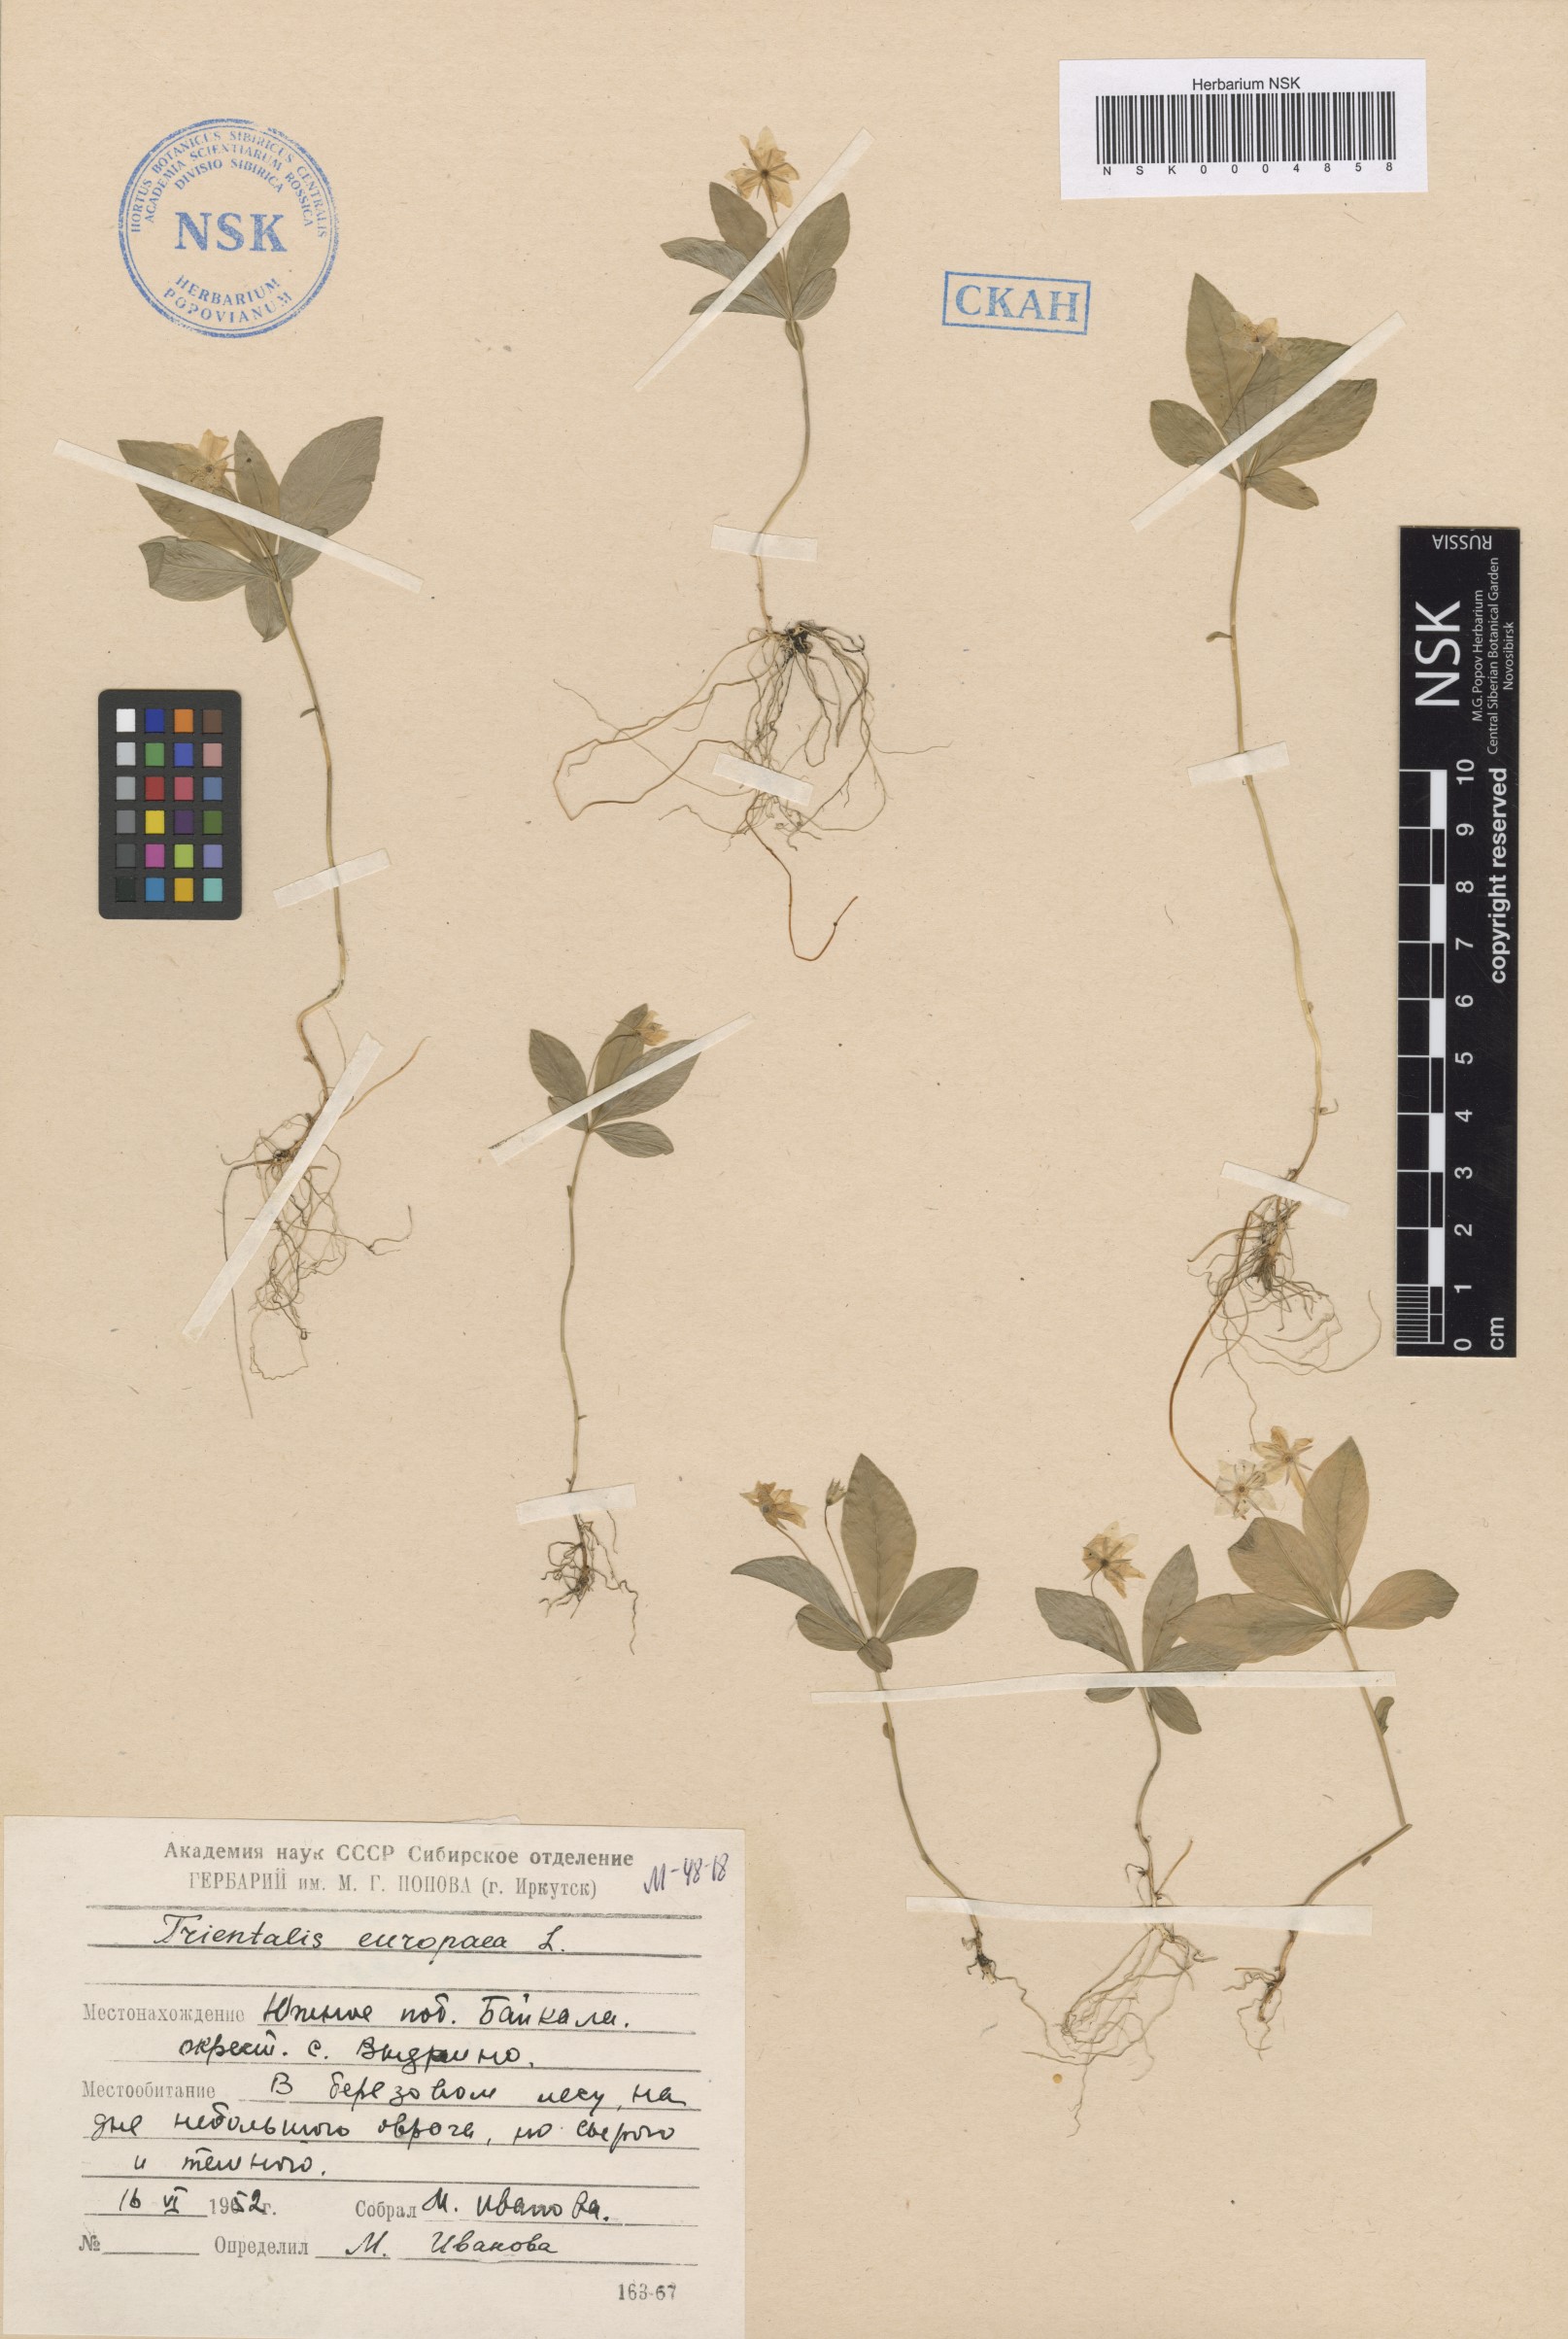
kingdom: Plantae
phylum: Tracheophyta
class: Magnoliopsida
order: Ericales
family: Primulaceae
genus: Lysimachia
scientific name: Lysimachia europaea
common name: Arctic starflower
